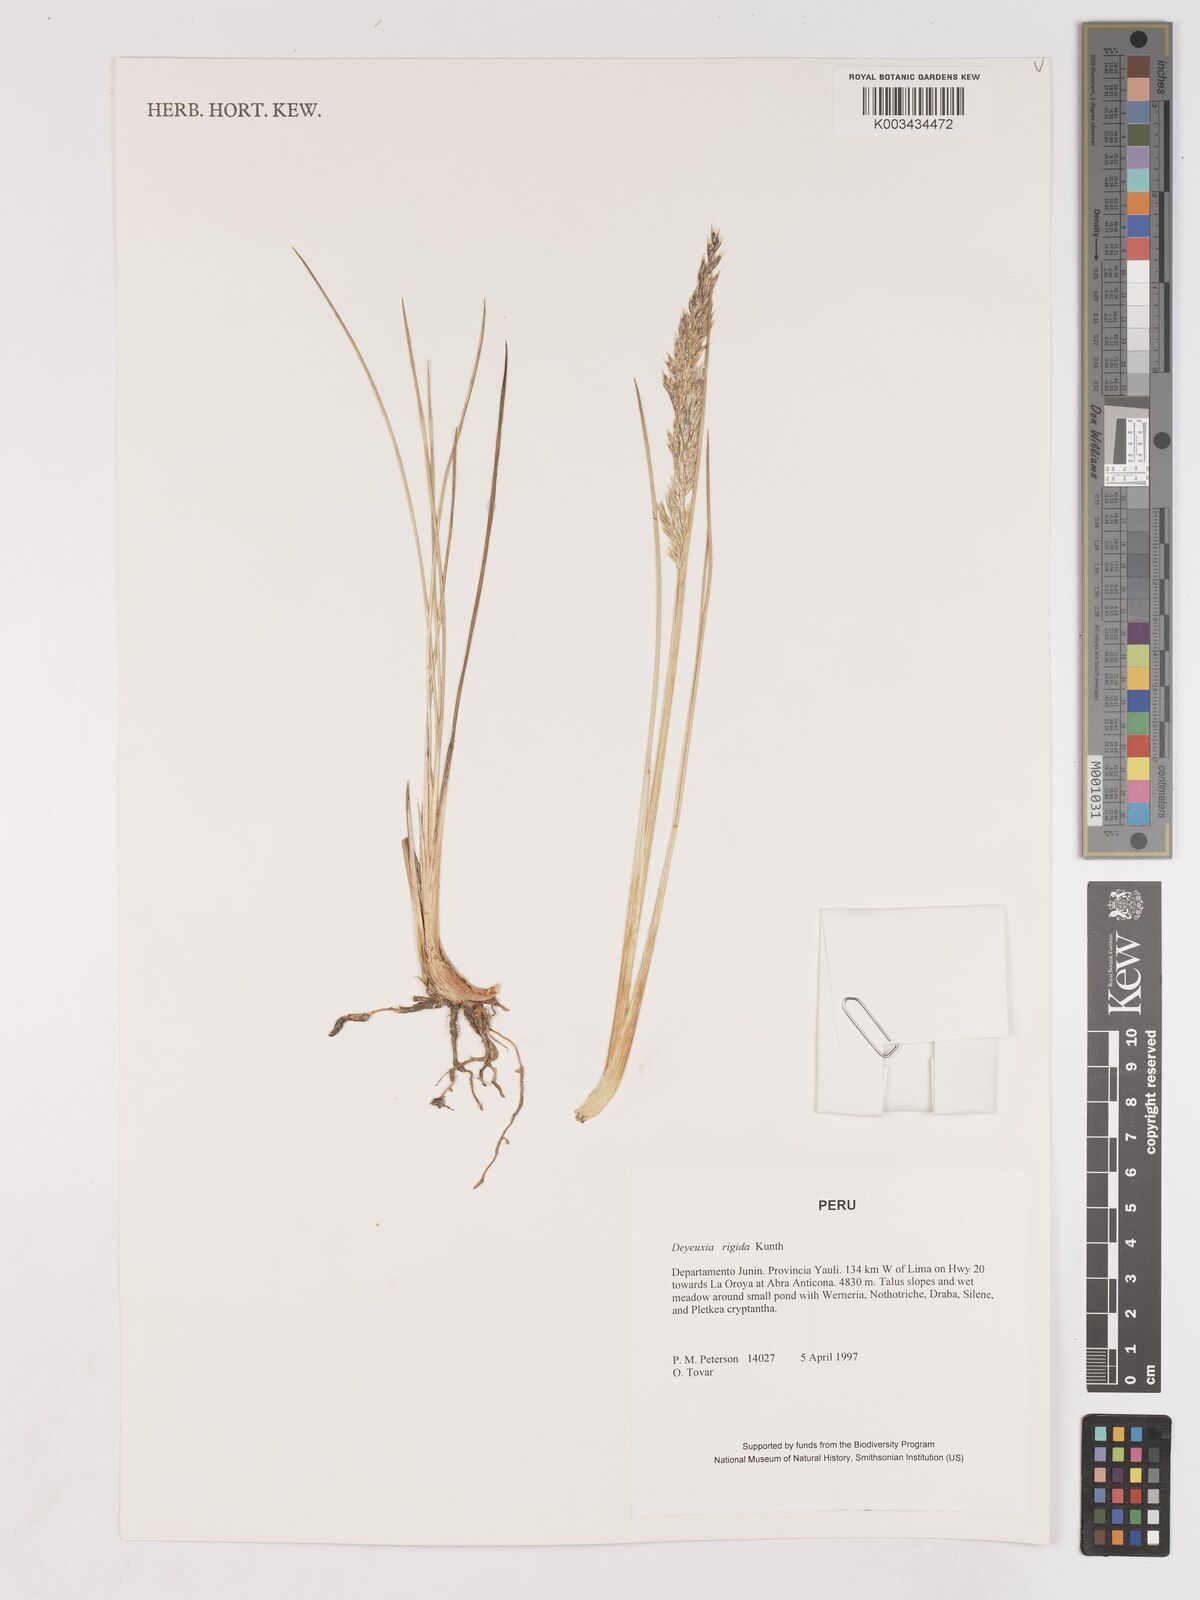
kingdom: Plantae
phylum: Tracheophyta
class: Liliopsida
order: Poales
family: Poaceae
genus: Cinnagrostis
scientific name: Cinnagrostis rigida
